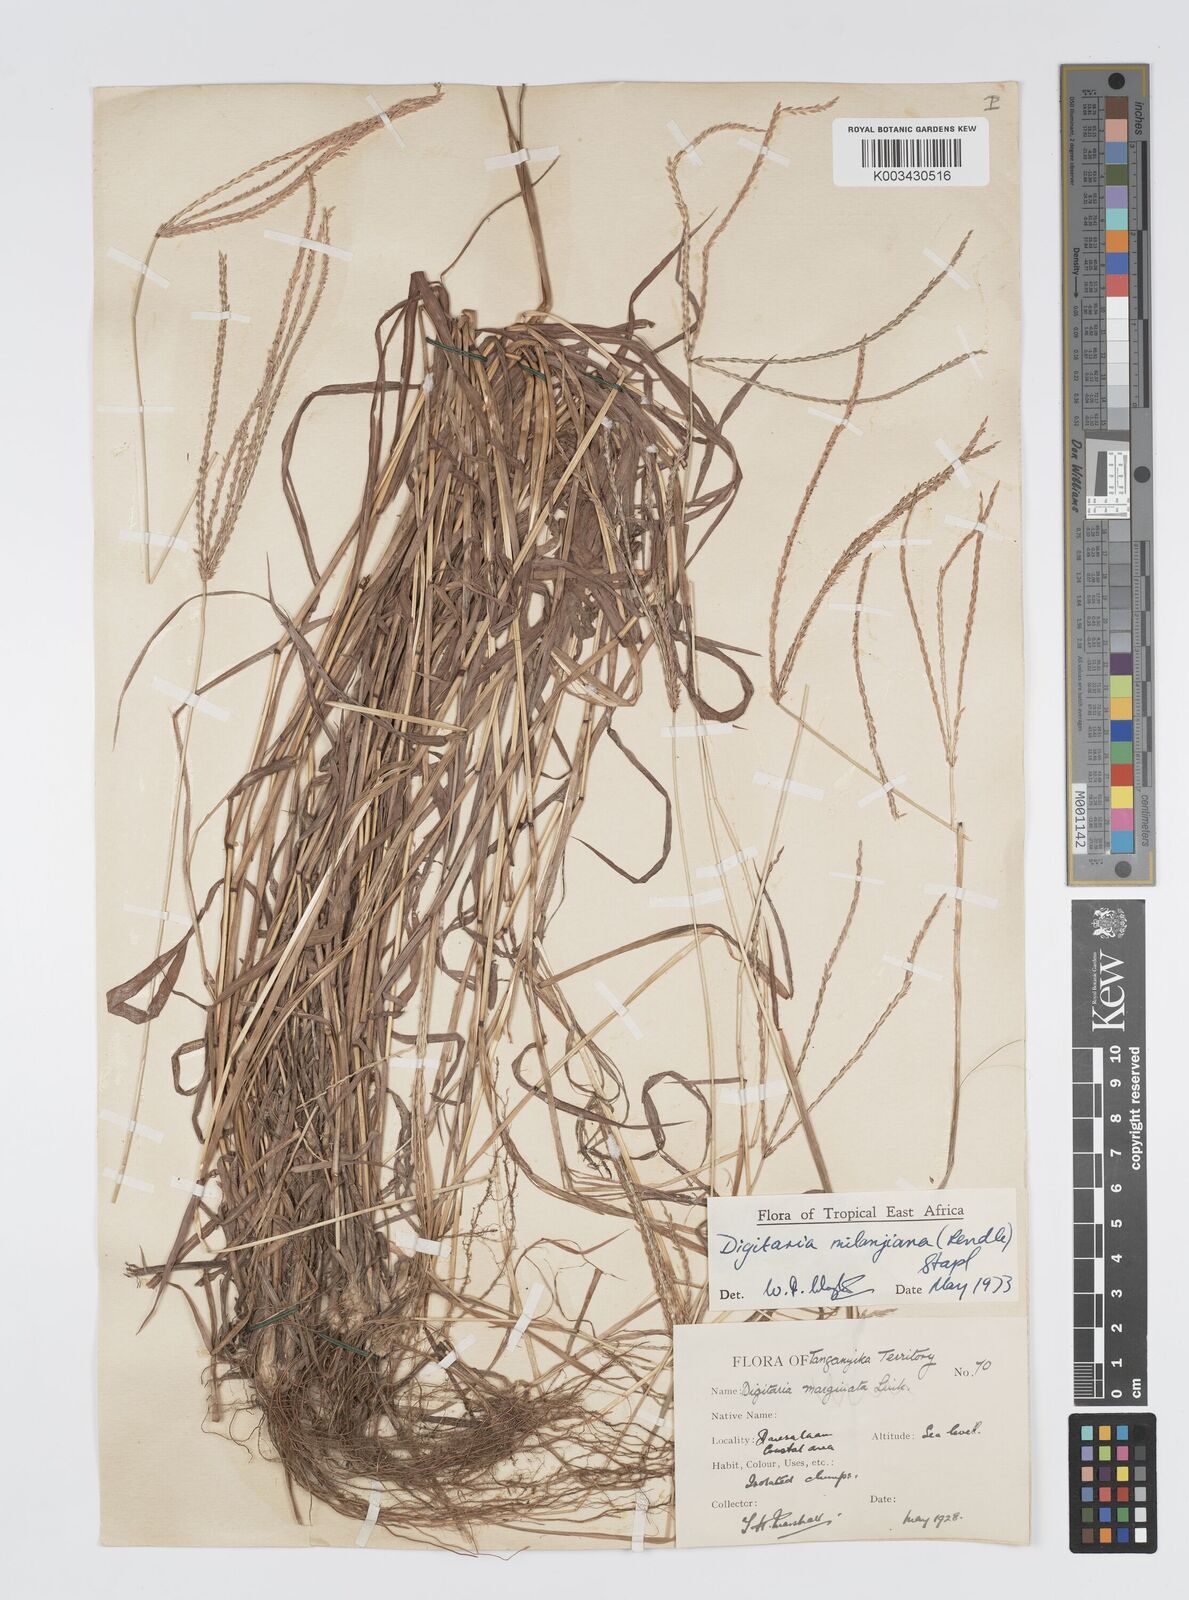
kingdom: Plantae
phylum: Tracheophyta
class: Liliopsida
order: Poales
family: Poaceae
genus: Digitaria
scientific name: Digitaria milanjiana
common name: Madagascar crabgrass
